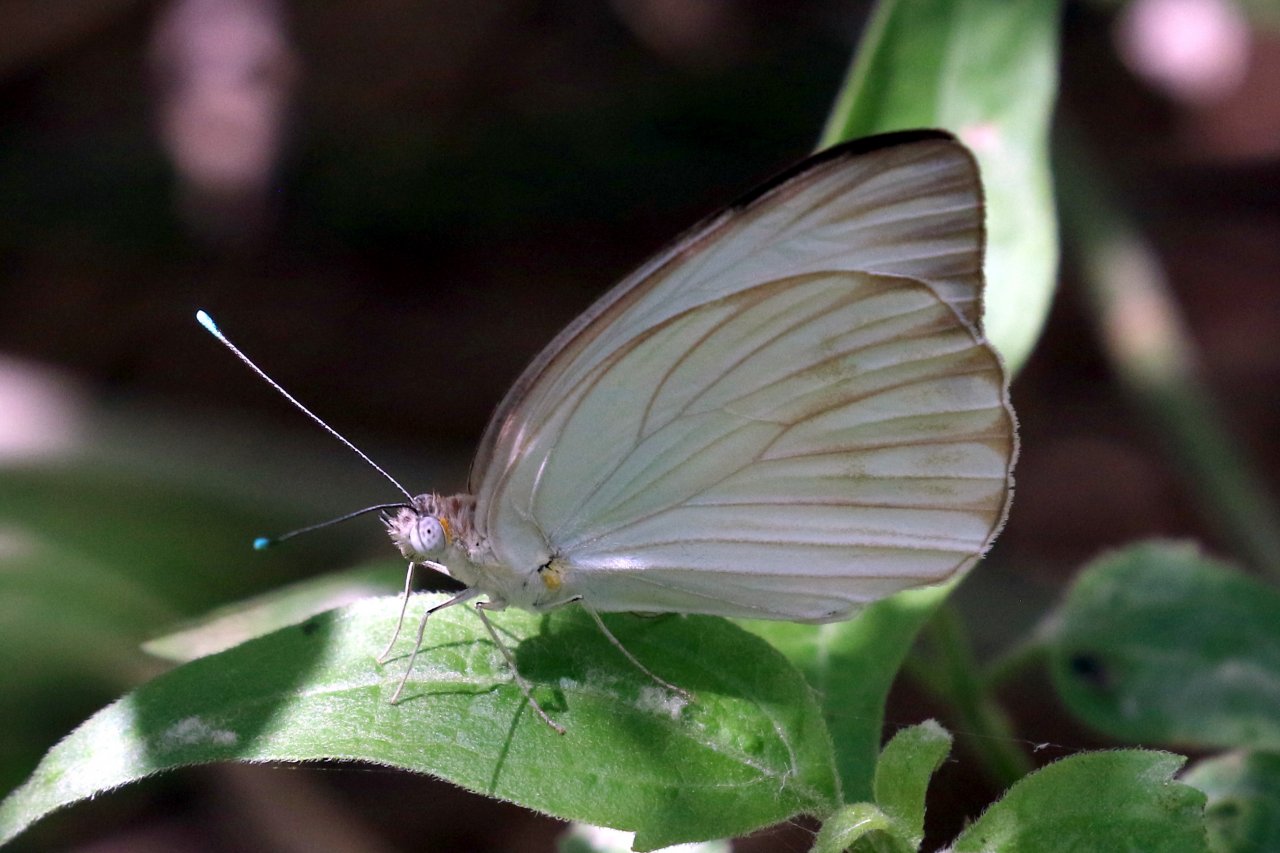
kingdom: Animalia
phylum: Arthropoda
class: Insecta
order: Lepidoptera
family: Pieridae
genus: Ascia
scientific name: Ascia monuste
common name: Great Southern White
